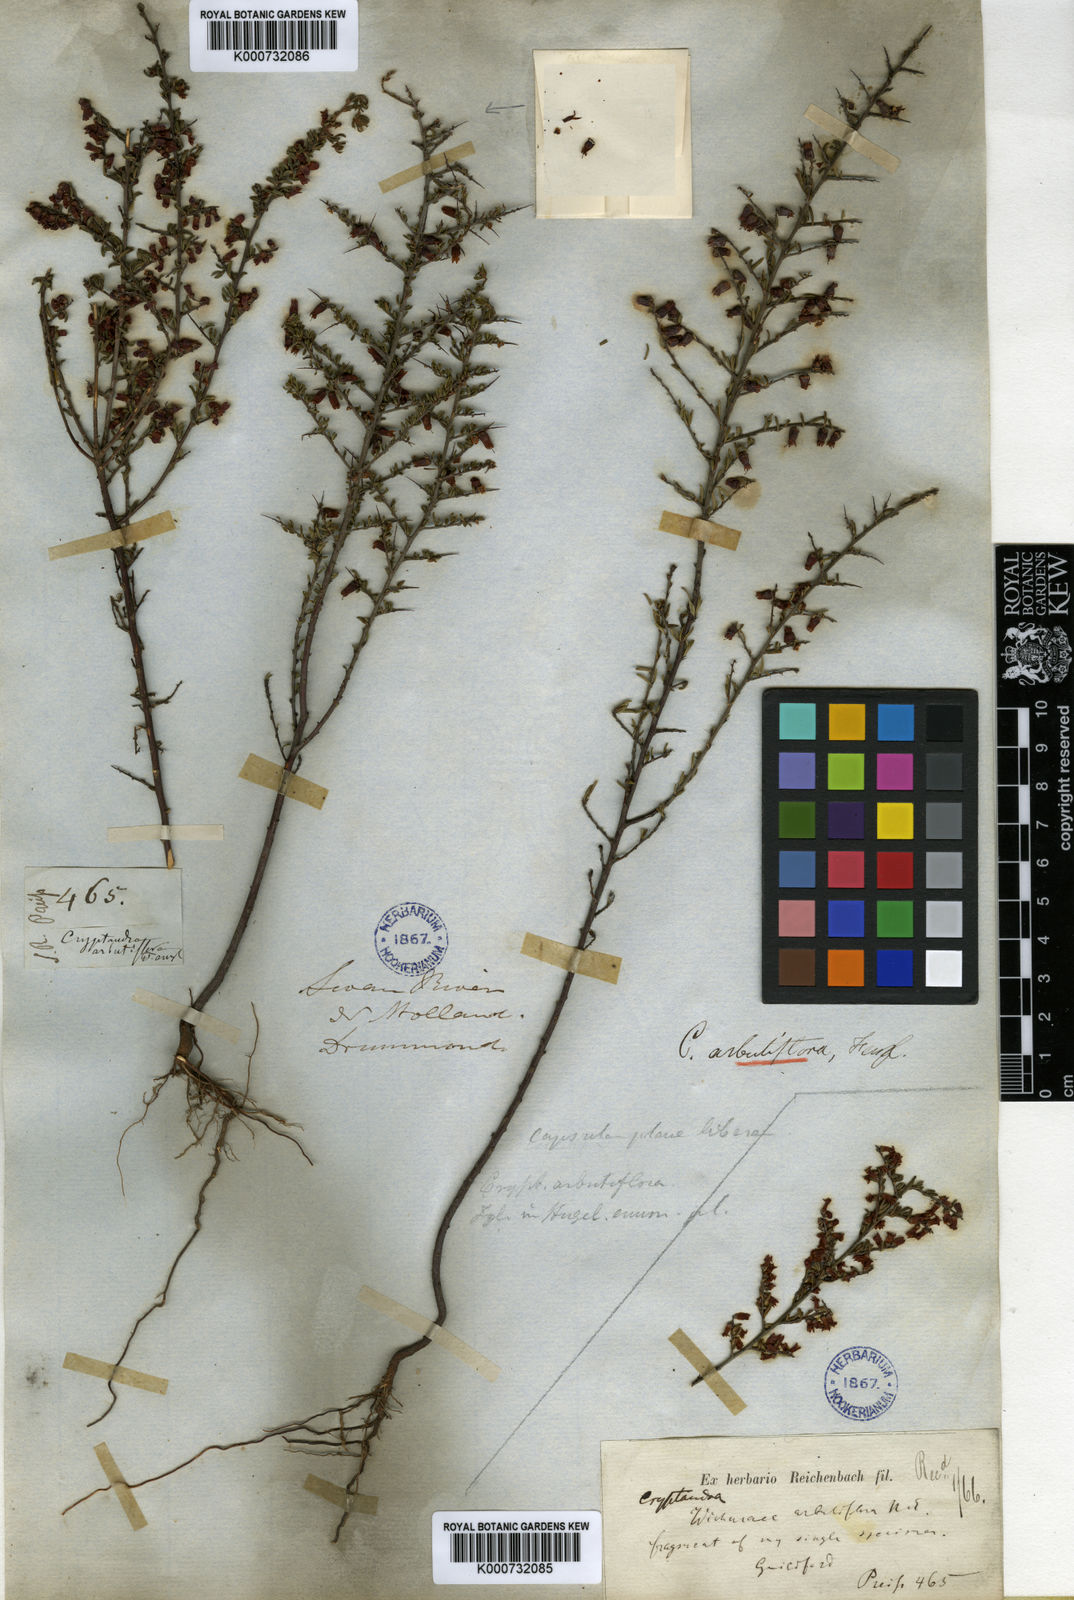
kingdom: Plantae
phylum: Tracheophyta
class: Magnoliopsida
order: Rosales
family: Rhamnaceae
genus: Cryptandra
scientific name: Cryptandra arbutiflora
